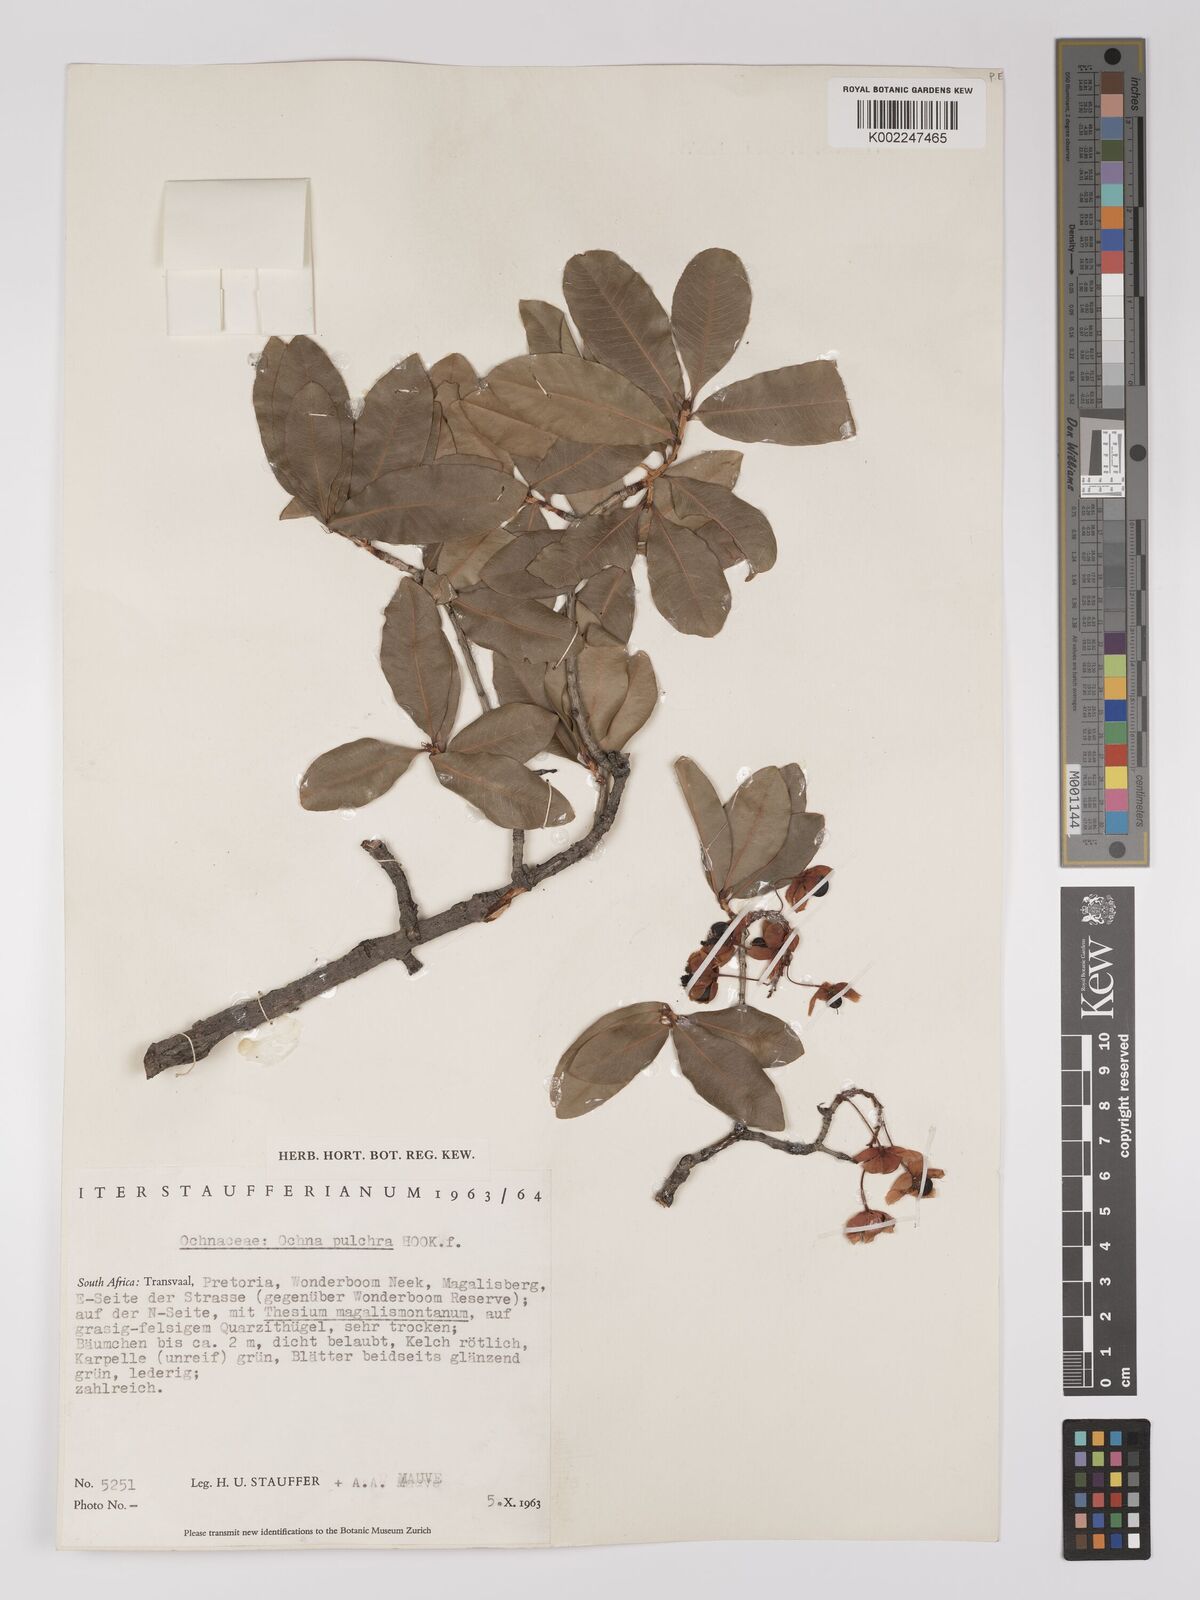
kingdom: Plantae
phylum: Tracheophyta
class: Magnoliopsida
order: Malpighiales
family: Ochnaceae
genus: Ochna
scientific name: Ochna pulchra
